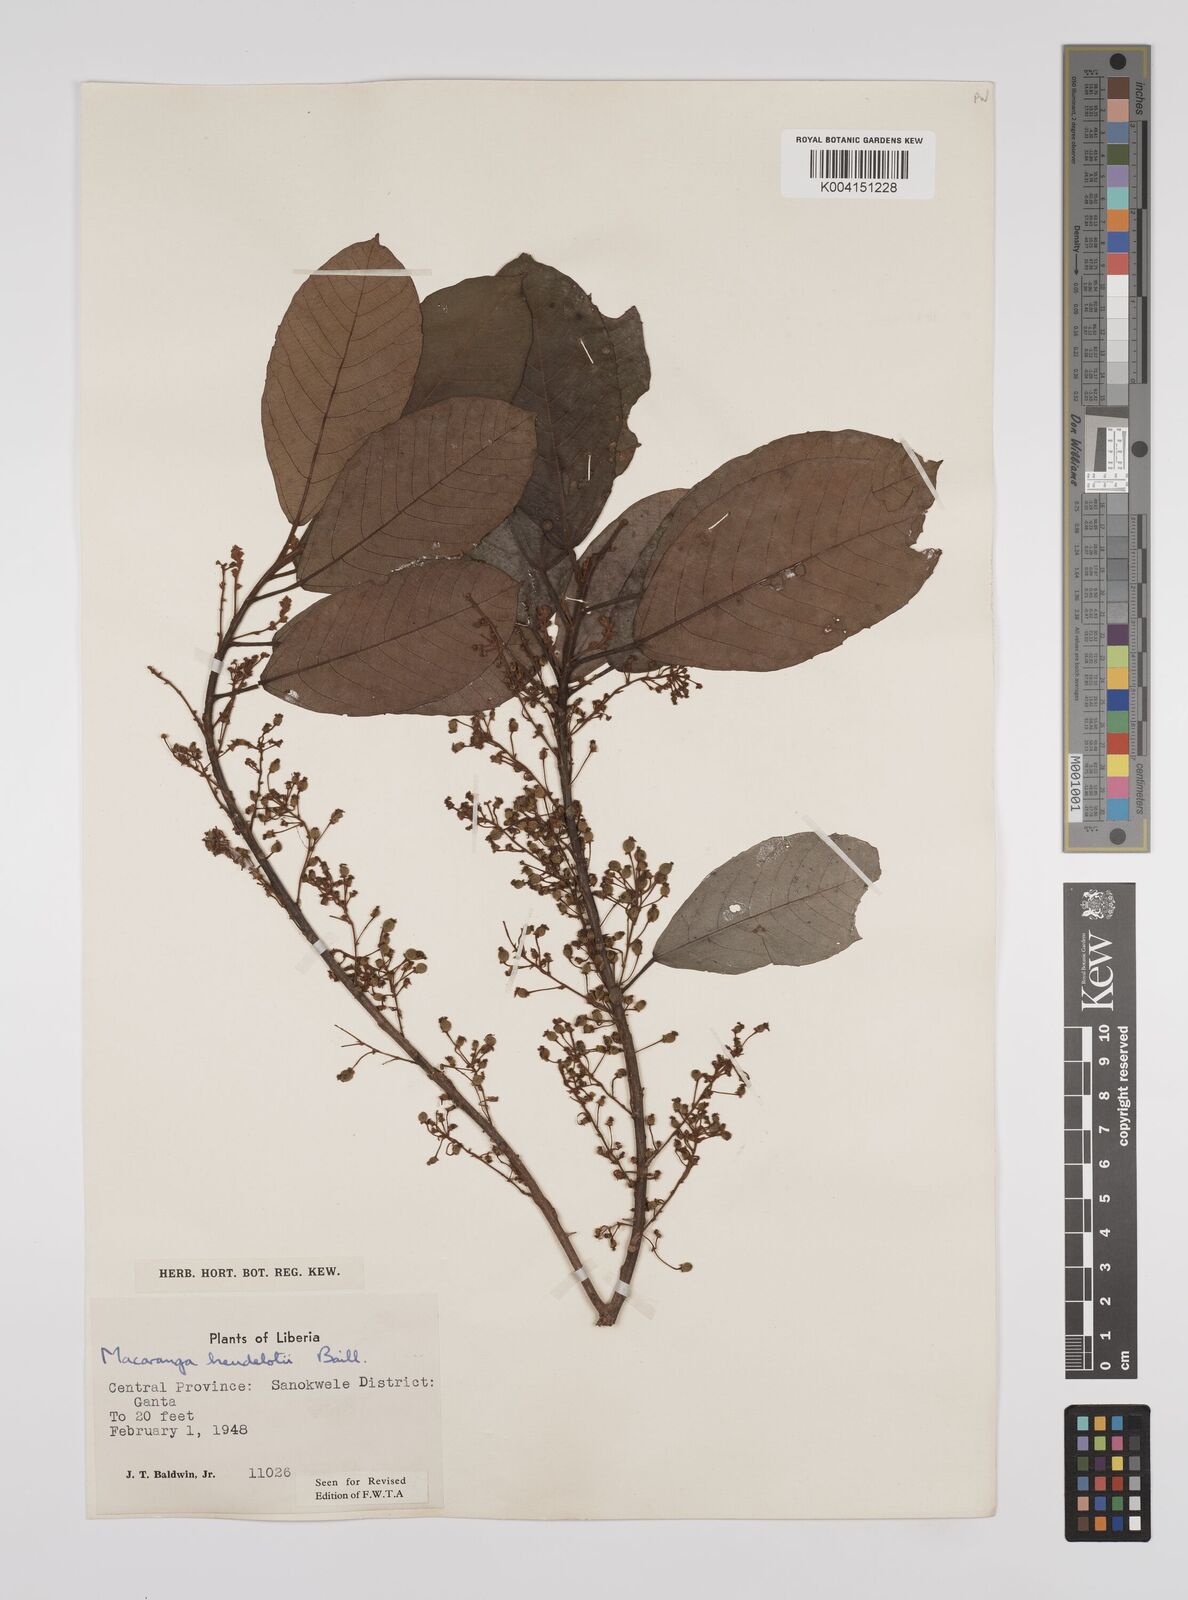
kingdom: Plantae
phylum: Tracheophyta
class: Magnoliopsida
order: Malpighiales
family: Euphorbiaceae
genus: Macaranga
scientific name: Macaranga heudelotii
